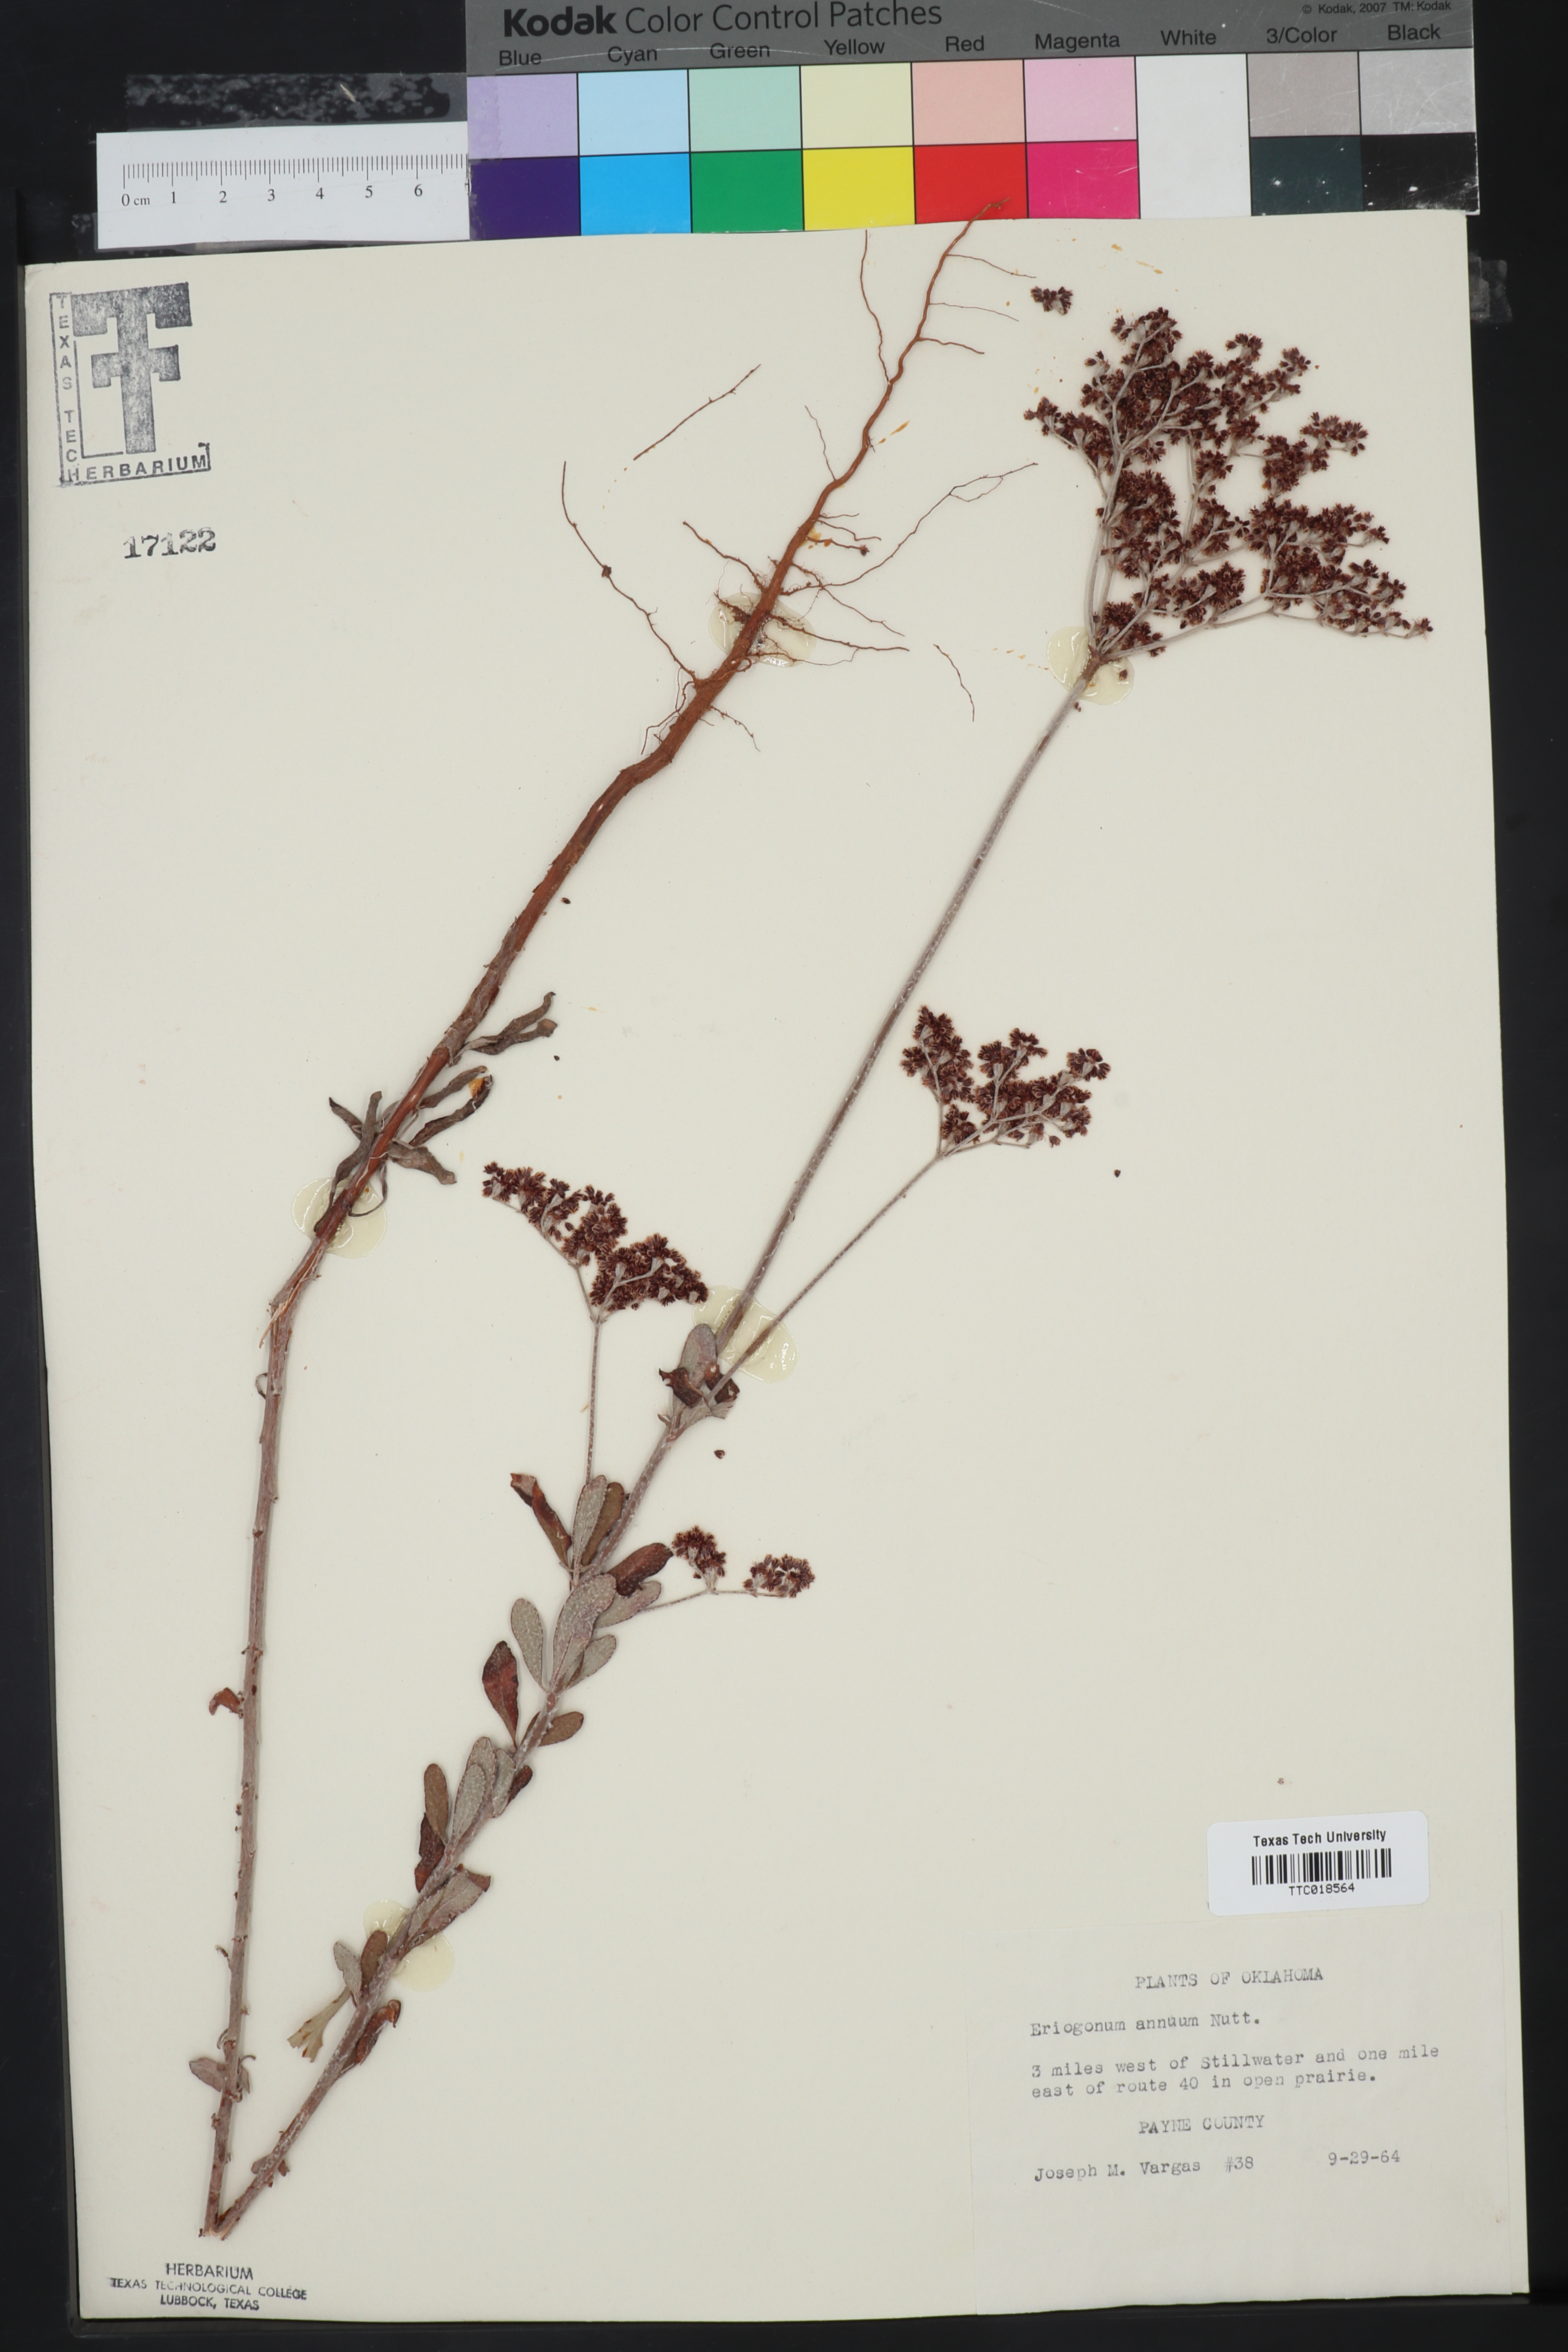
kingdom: Plantae
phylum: Tracheophyta
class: Magnoliopsida
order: Caryophyllales
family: Polygonaceae
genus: Eriogonum
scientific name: Eriogonum annuum
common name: Annual wild buckwheat
